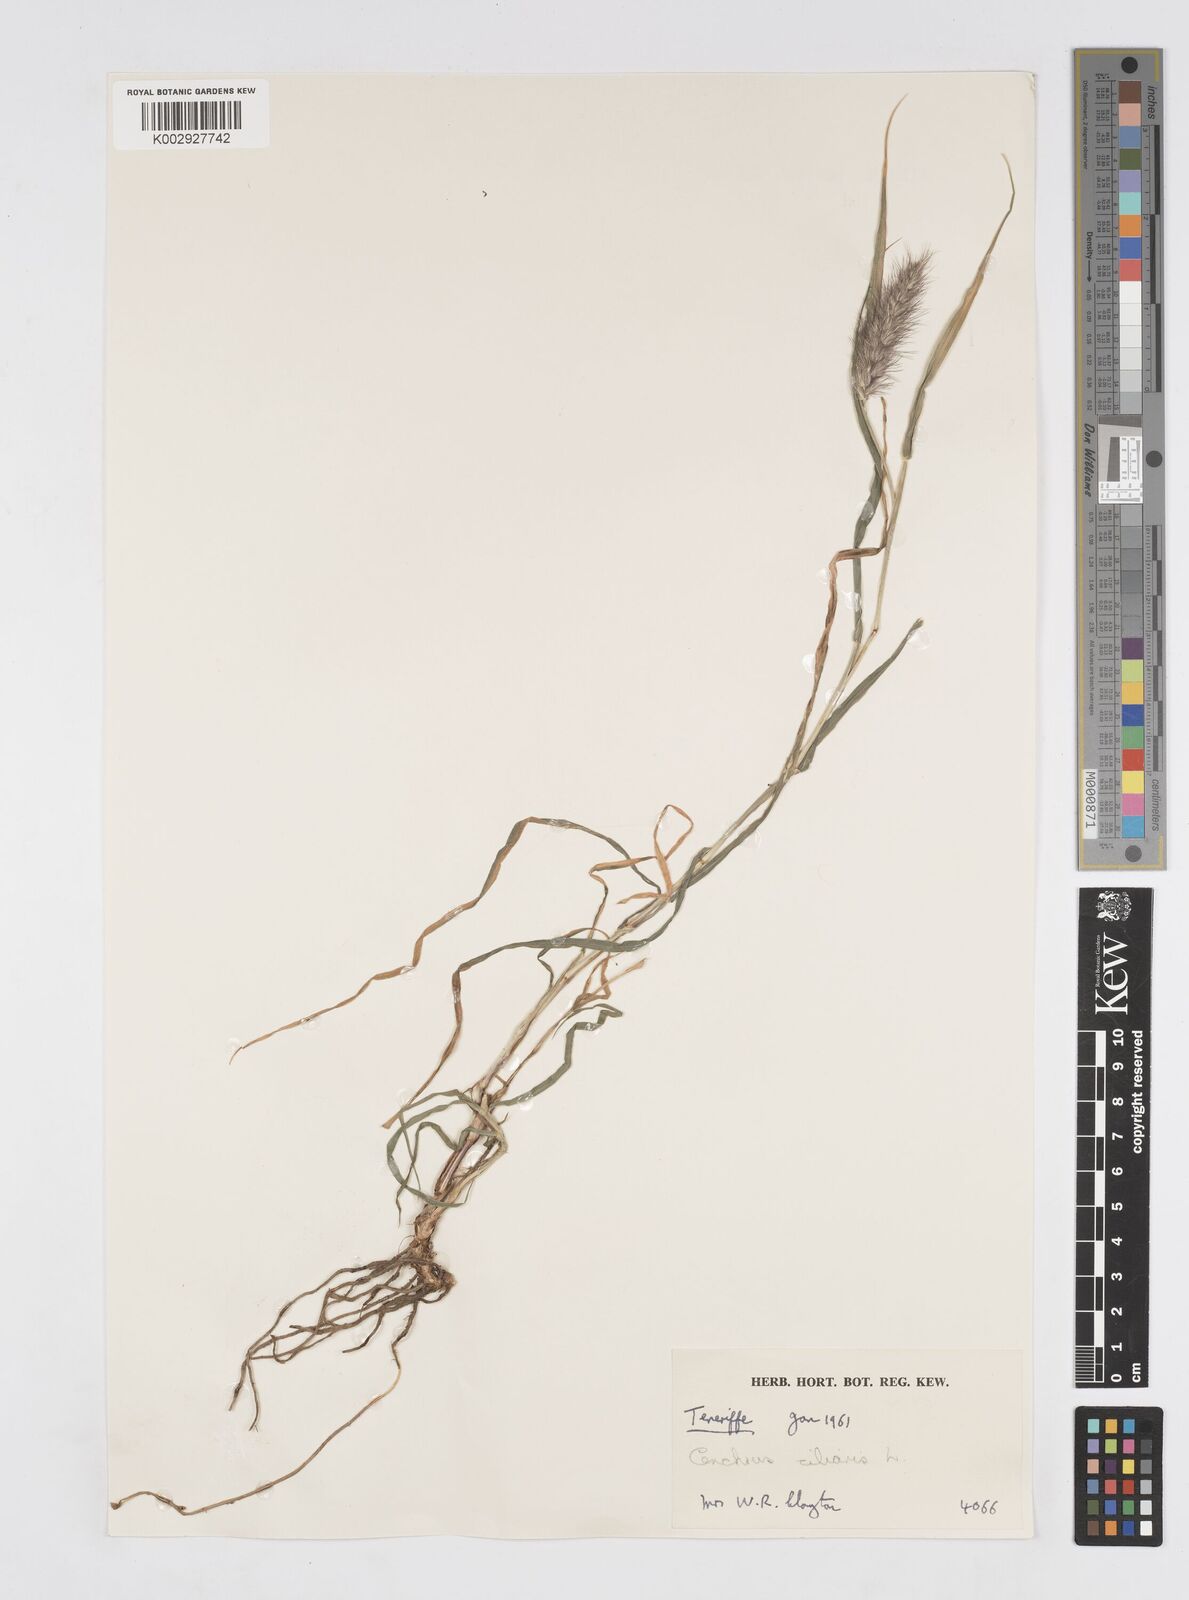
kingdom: Plantae
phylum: Tracheophyta
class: Liliopsida
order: Poales
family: Poaceae
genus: Cenchrus
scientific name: Cenchrus ciliaris
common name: Buffelgrass
